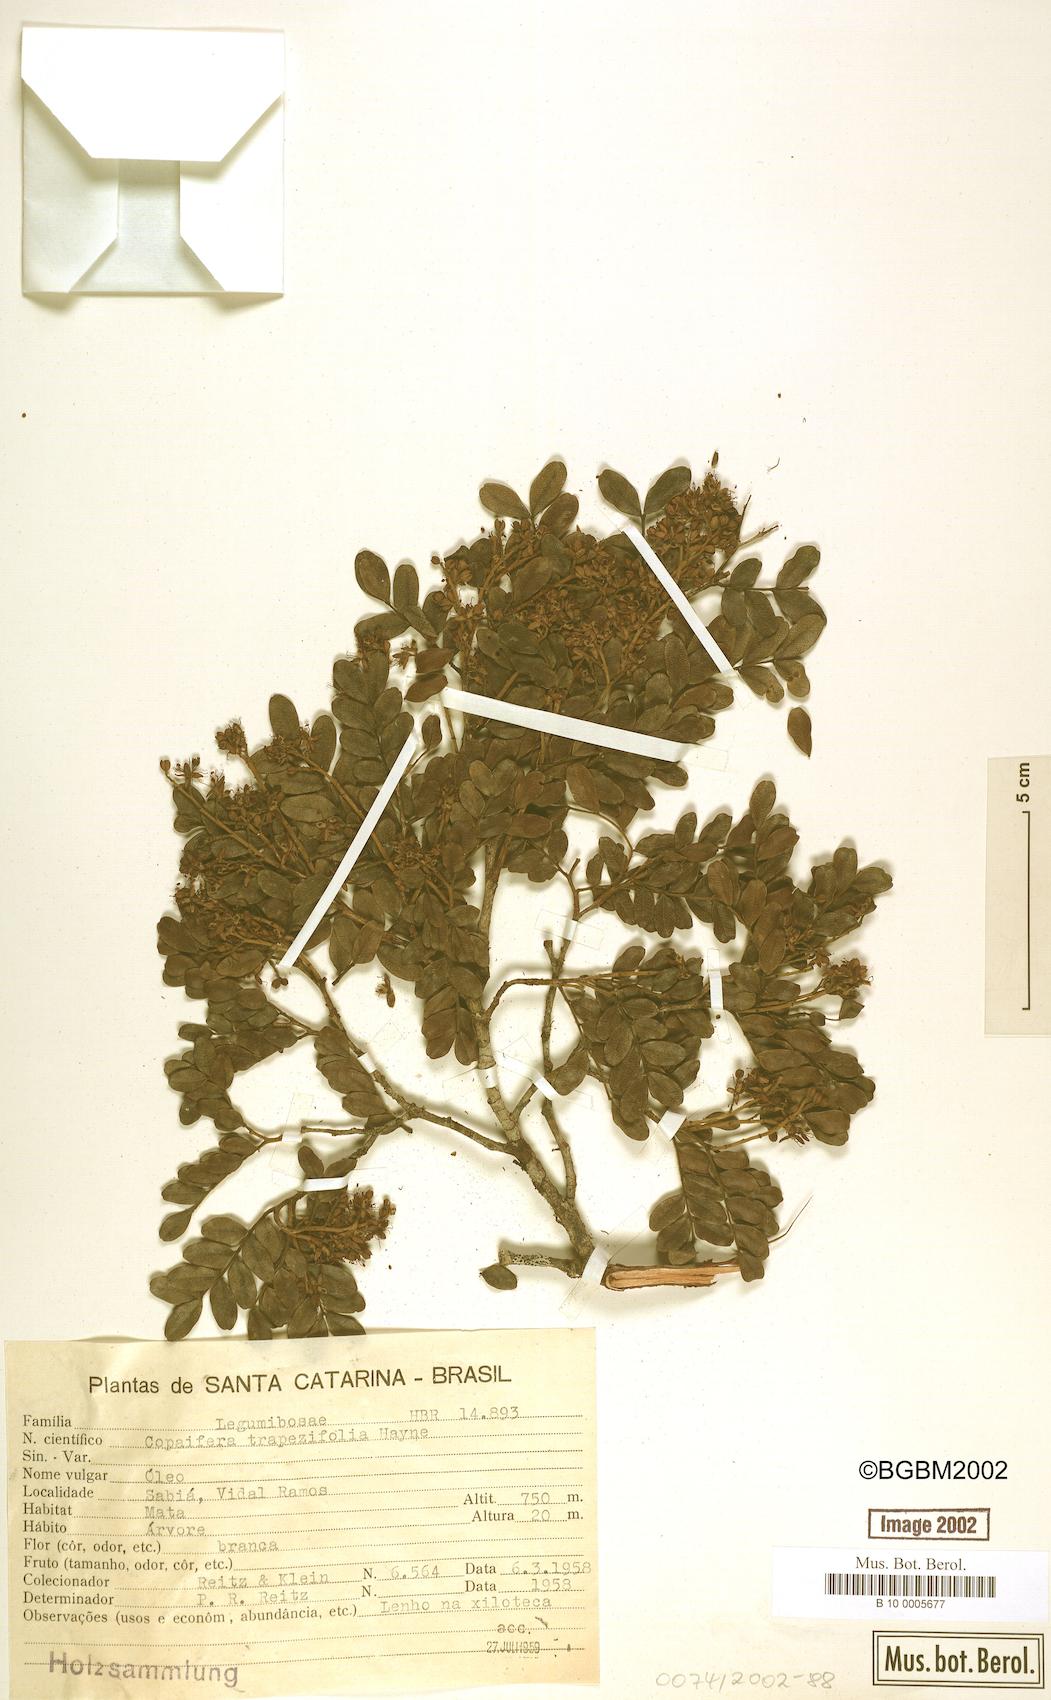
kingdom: Plantae
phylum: Tracheophyta
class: Magnoliopsida
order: Fabales
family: Fabaceae
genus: Copaifera
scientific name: Copaifera trapezifolia
